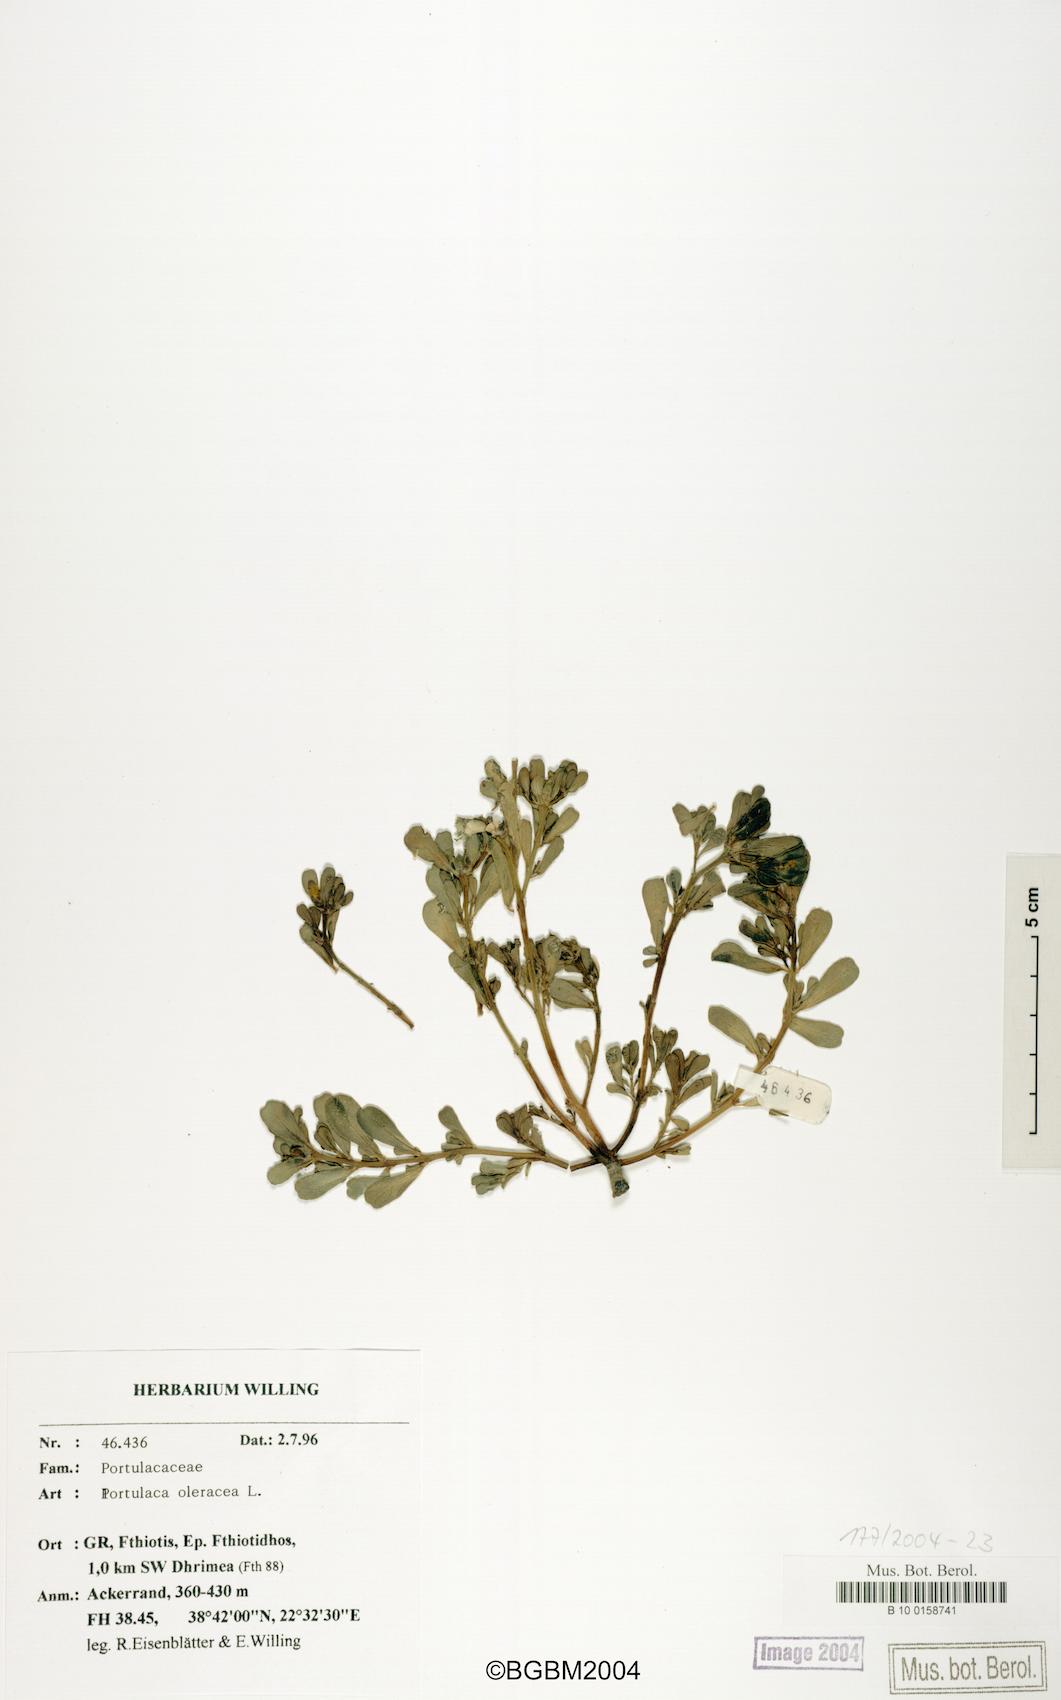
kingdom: Plantae
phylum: Tracheophyta
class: Magnoliopsida
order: Caryophyllales
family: Portulacaceae
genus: Portulaca
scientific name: Portulaca oleracea
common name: Common purslane
